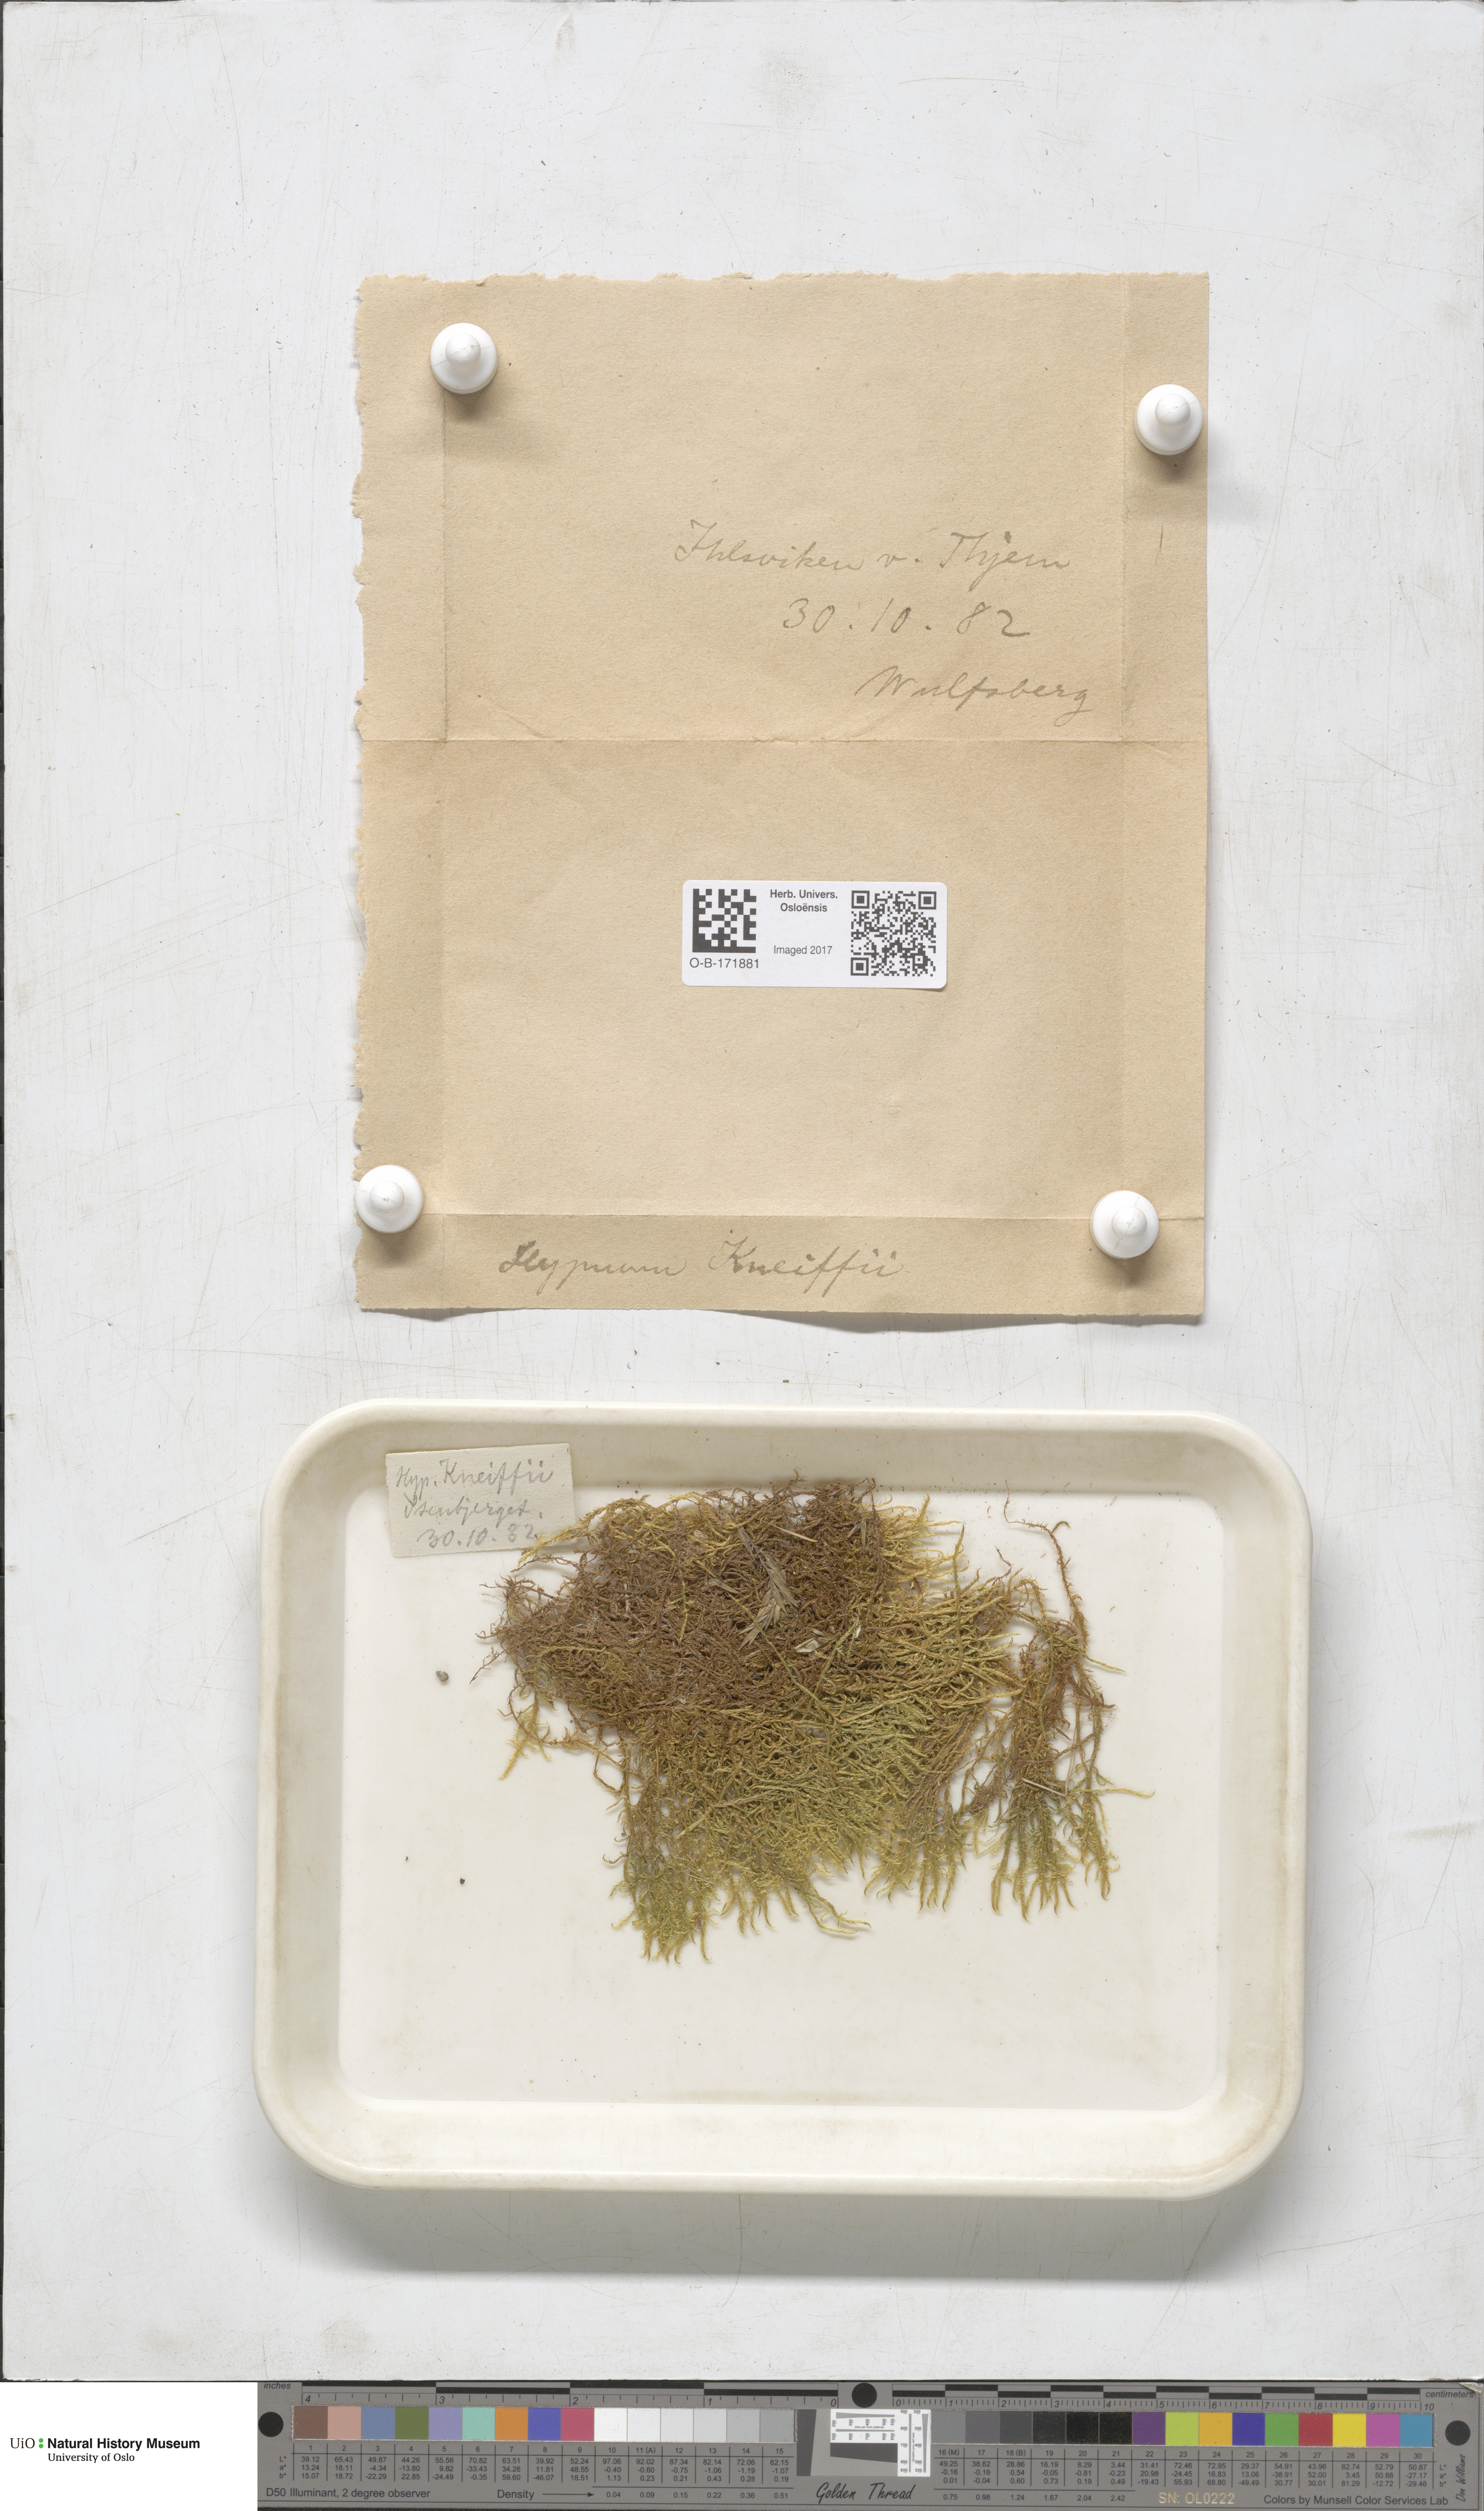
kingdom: Plantae
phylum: Bryophyta
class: Bryopsida
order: Hypnales
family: Amblystegiaceae
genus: Drepanocladus
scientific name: Drepanocladus aduncus
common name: Knieff's hook moss
